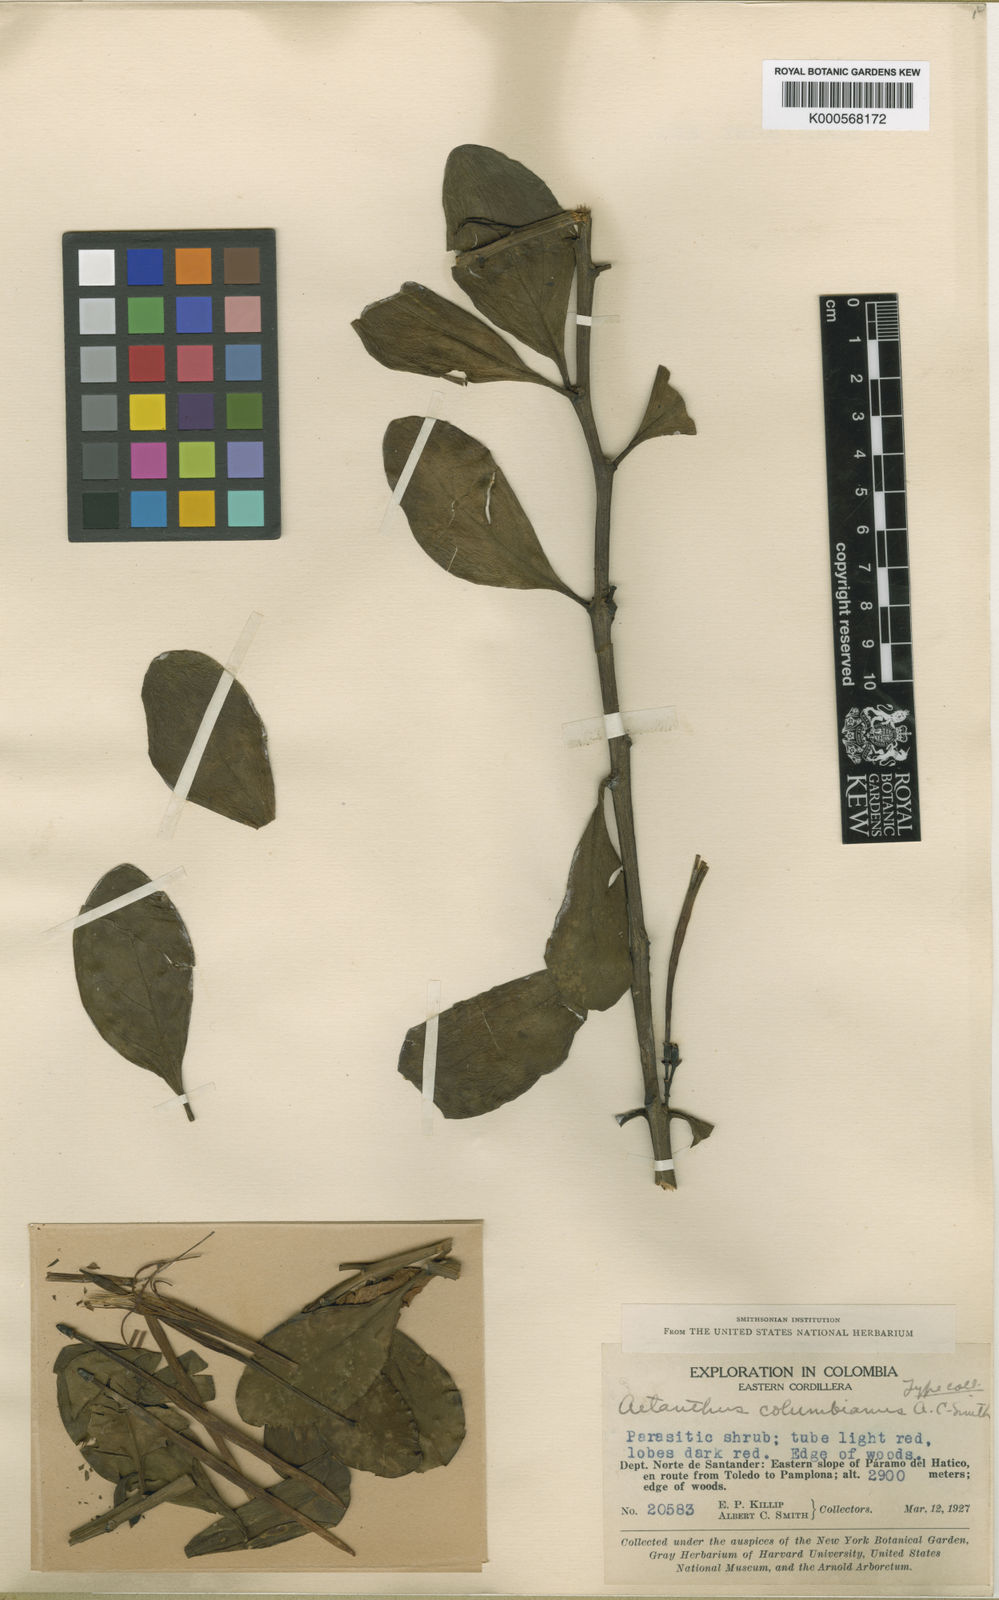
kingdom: Plantae
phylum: Tracheophyta
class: Magnoliopsida
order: Santalales
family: Loranthaceae
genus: Aetanthus
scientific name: Aetanthus colombianus
